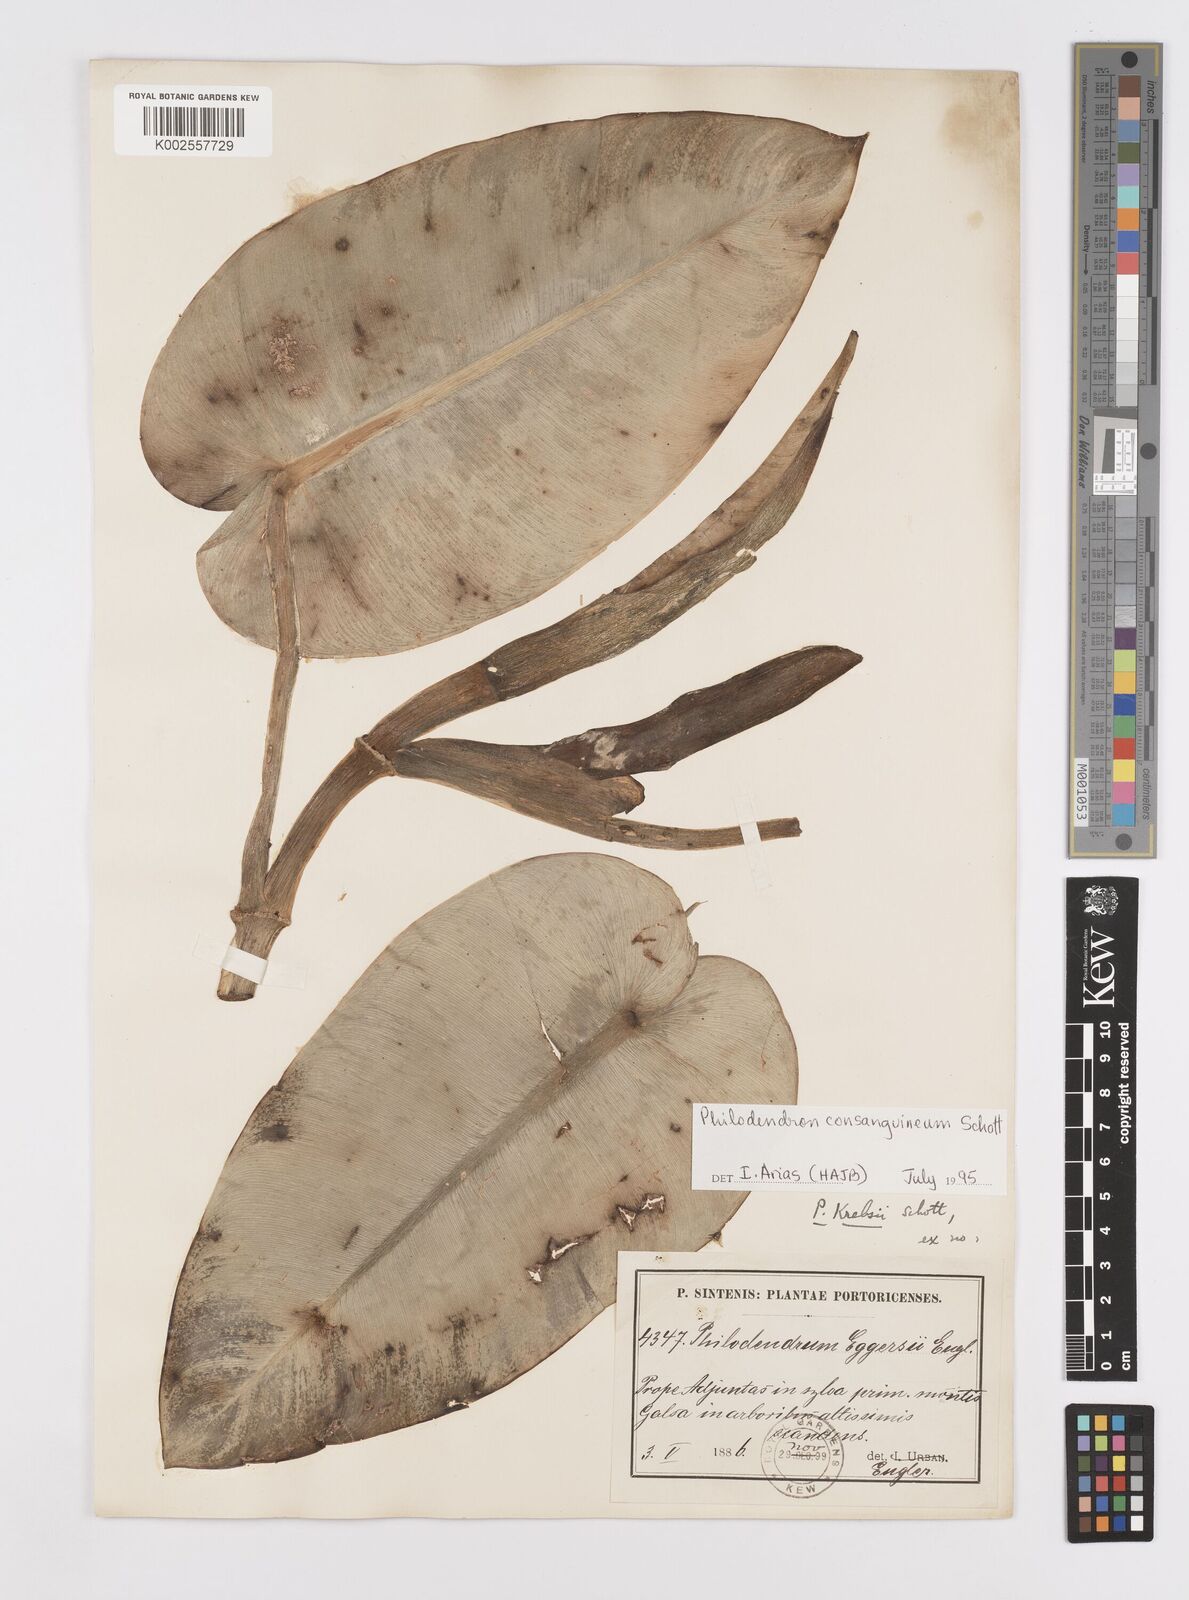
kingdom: Plantae
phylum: Tracheophyta
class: Liliopsida
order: Alismatales
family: Araceae
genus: Philodendron
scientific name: Philodendron consanguineum
